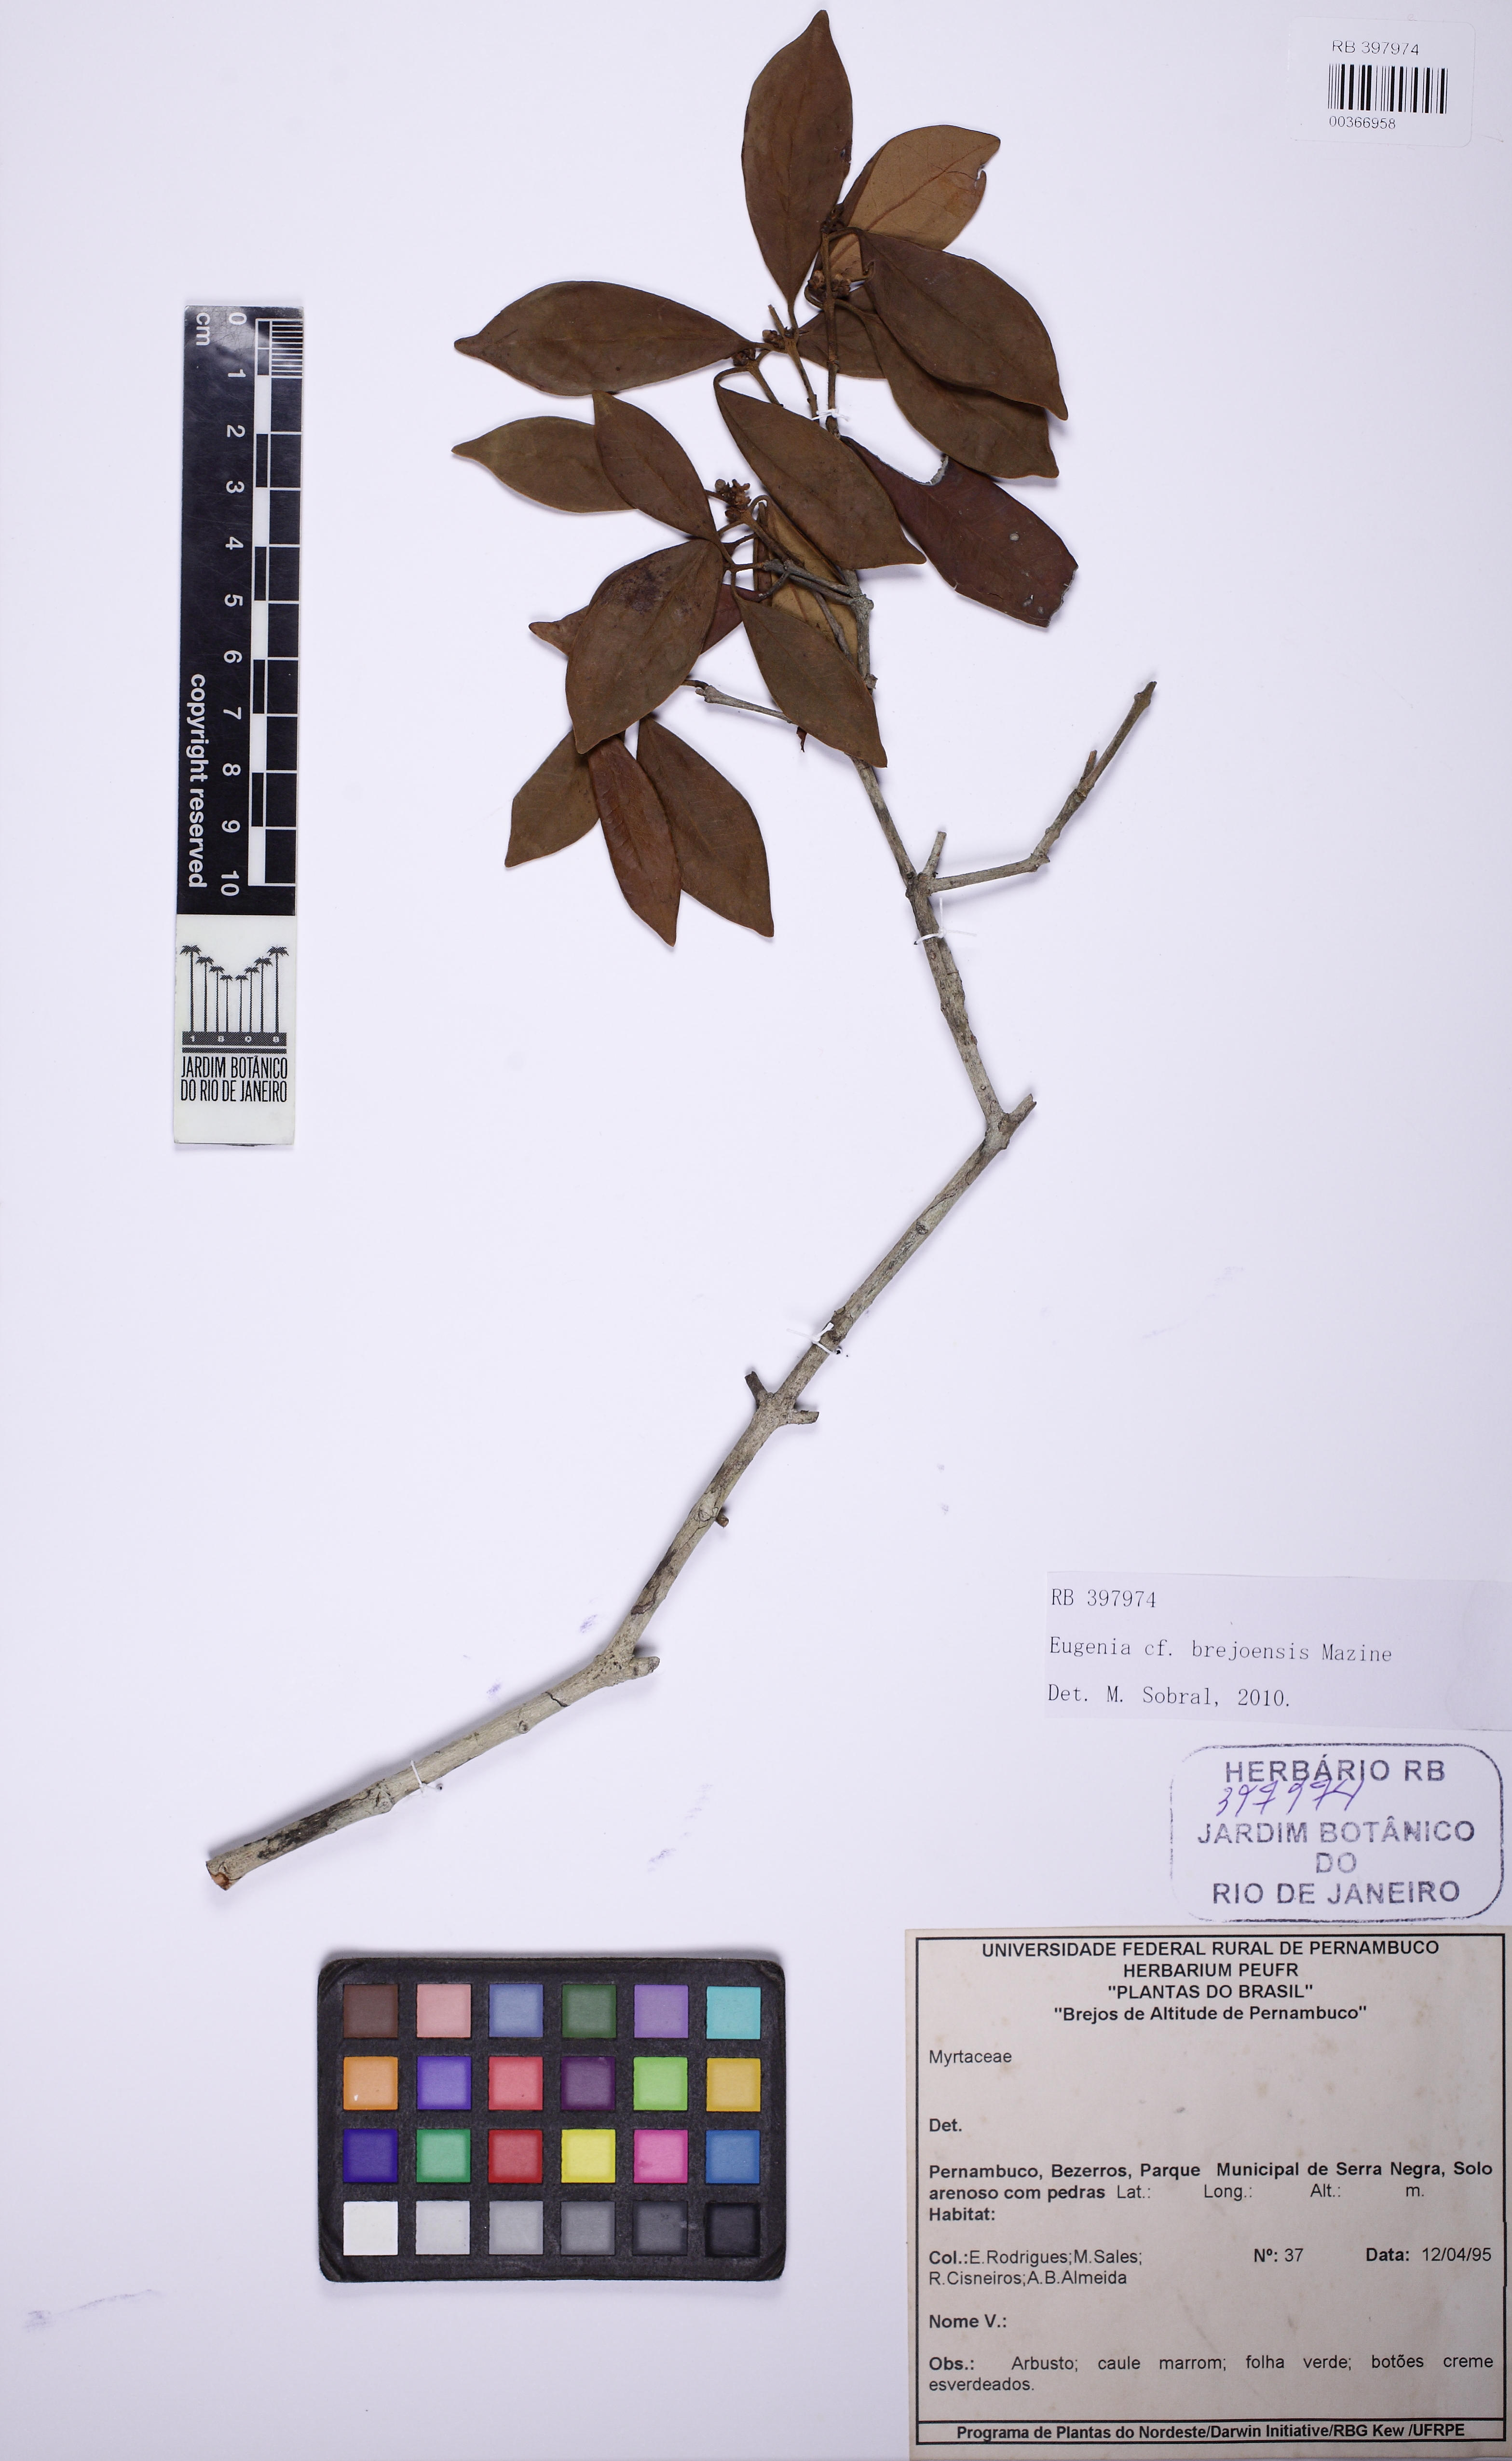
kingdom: Plantae
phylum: Tracheophyta
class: Magnoliopsida
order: Myrtales
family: Myrtaceae
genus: Eugenia
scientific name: Eugenia brejoensis
